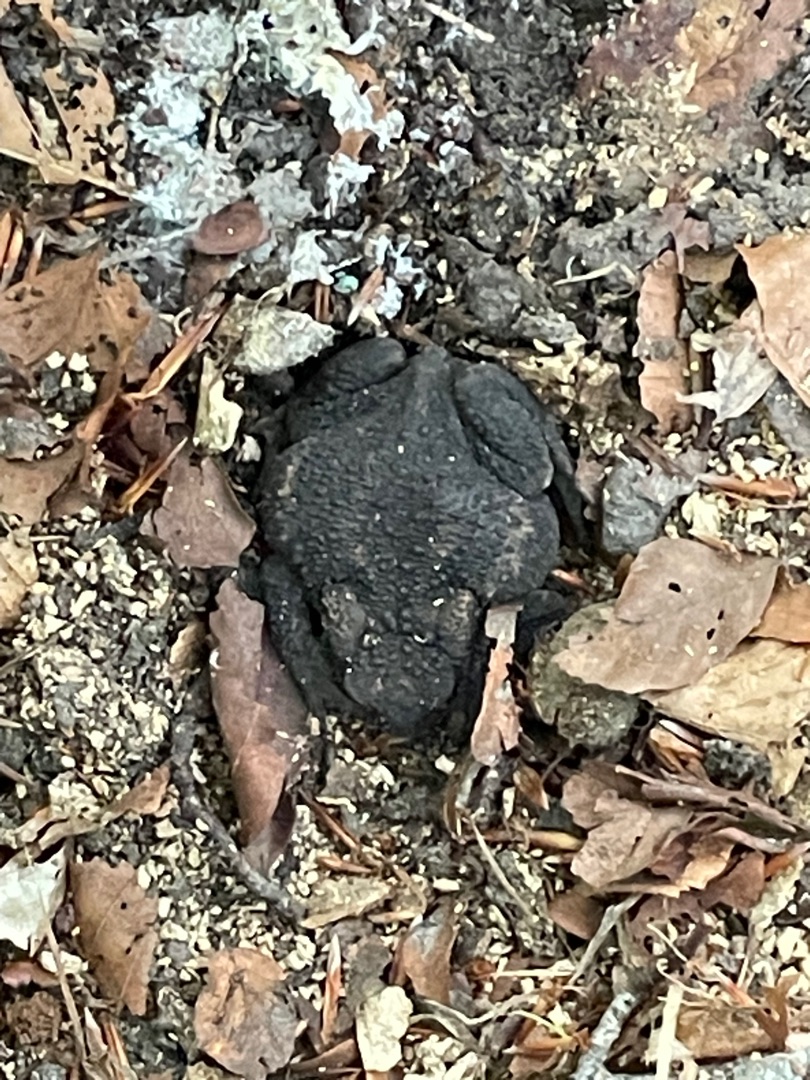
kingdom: Animalia
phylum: Chordata
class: Amphibia
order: Anura
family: Bufonidae
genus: Bufo
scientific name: Bufo bufo
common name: Skrubtudse
